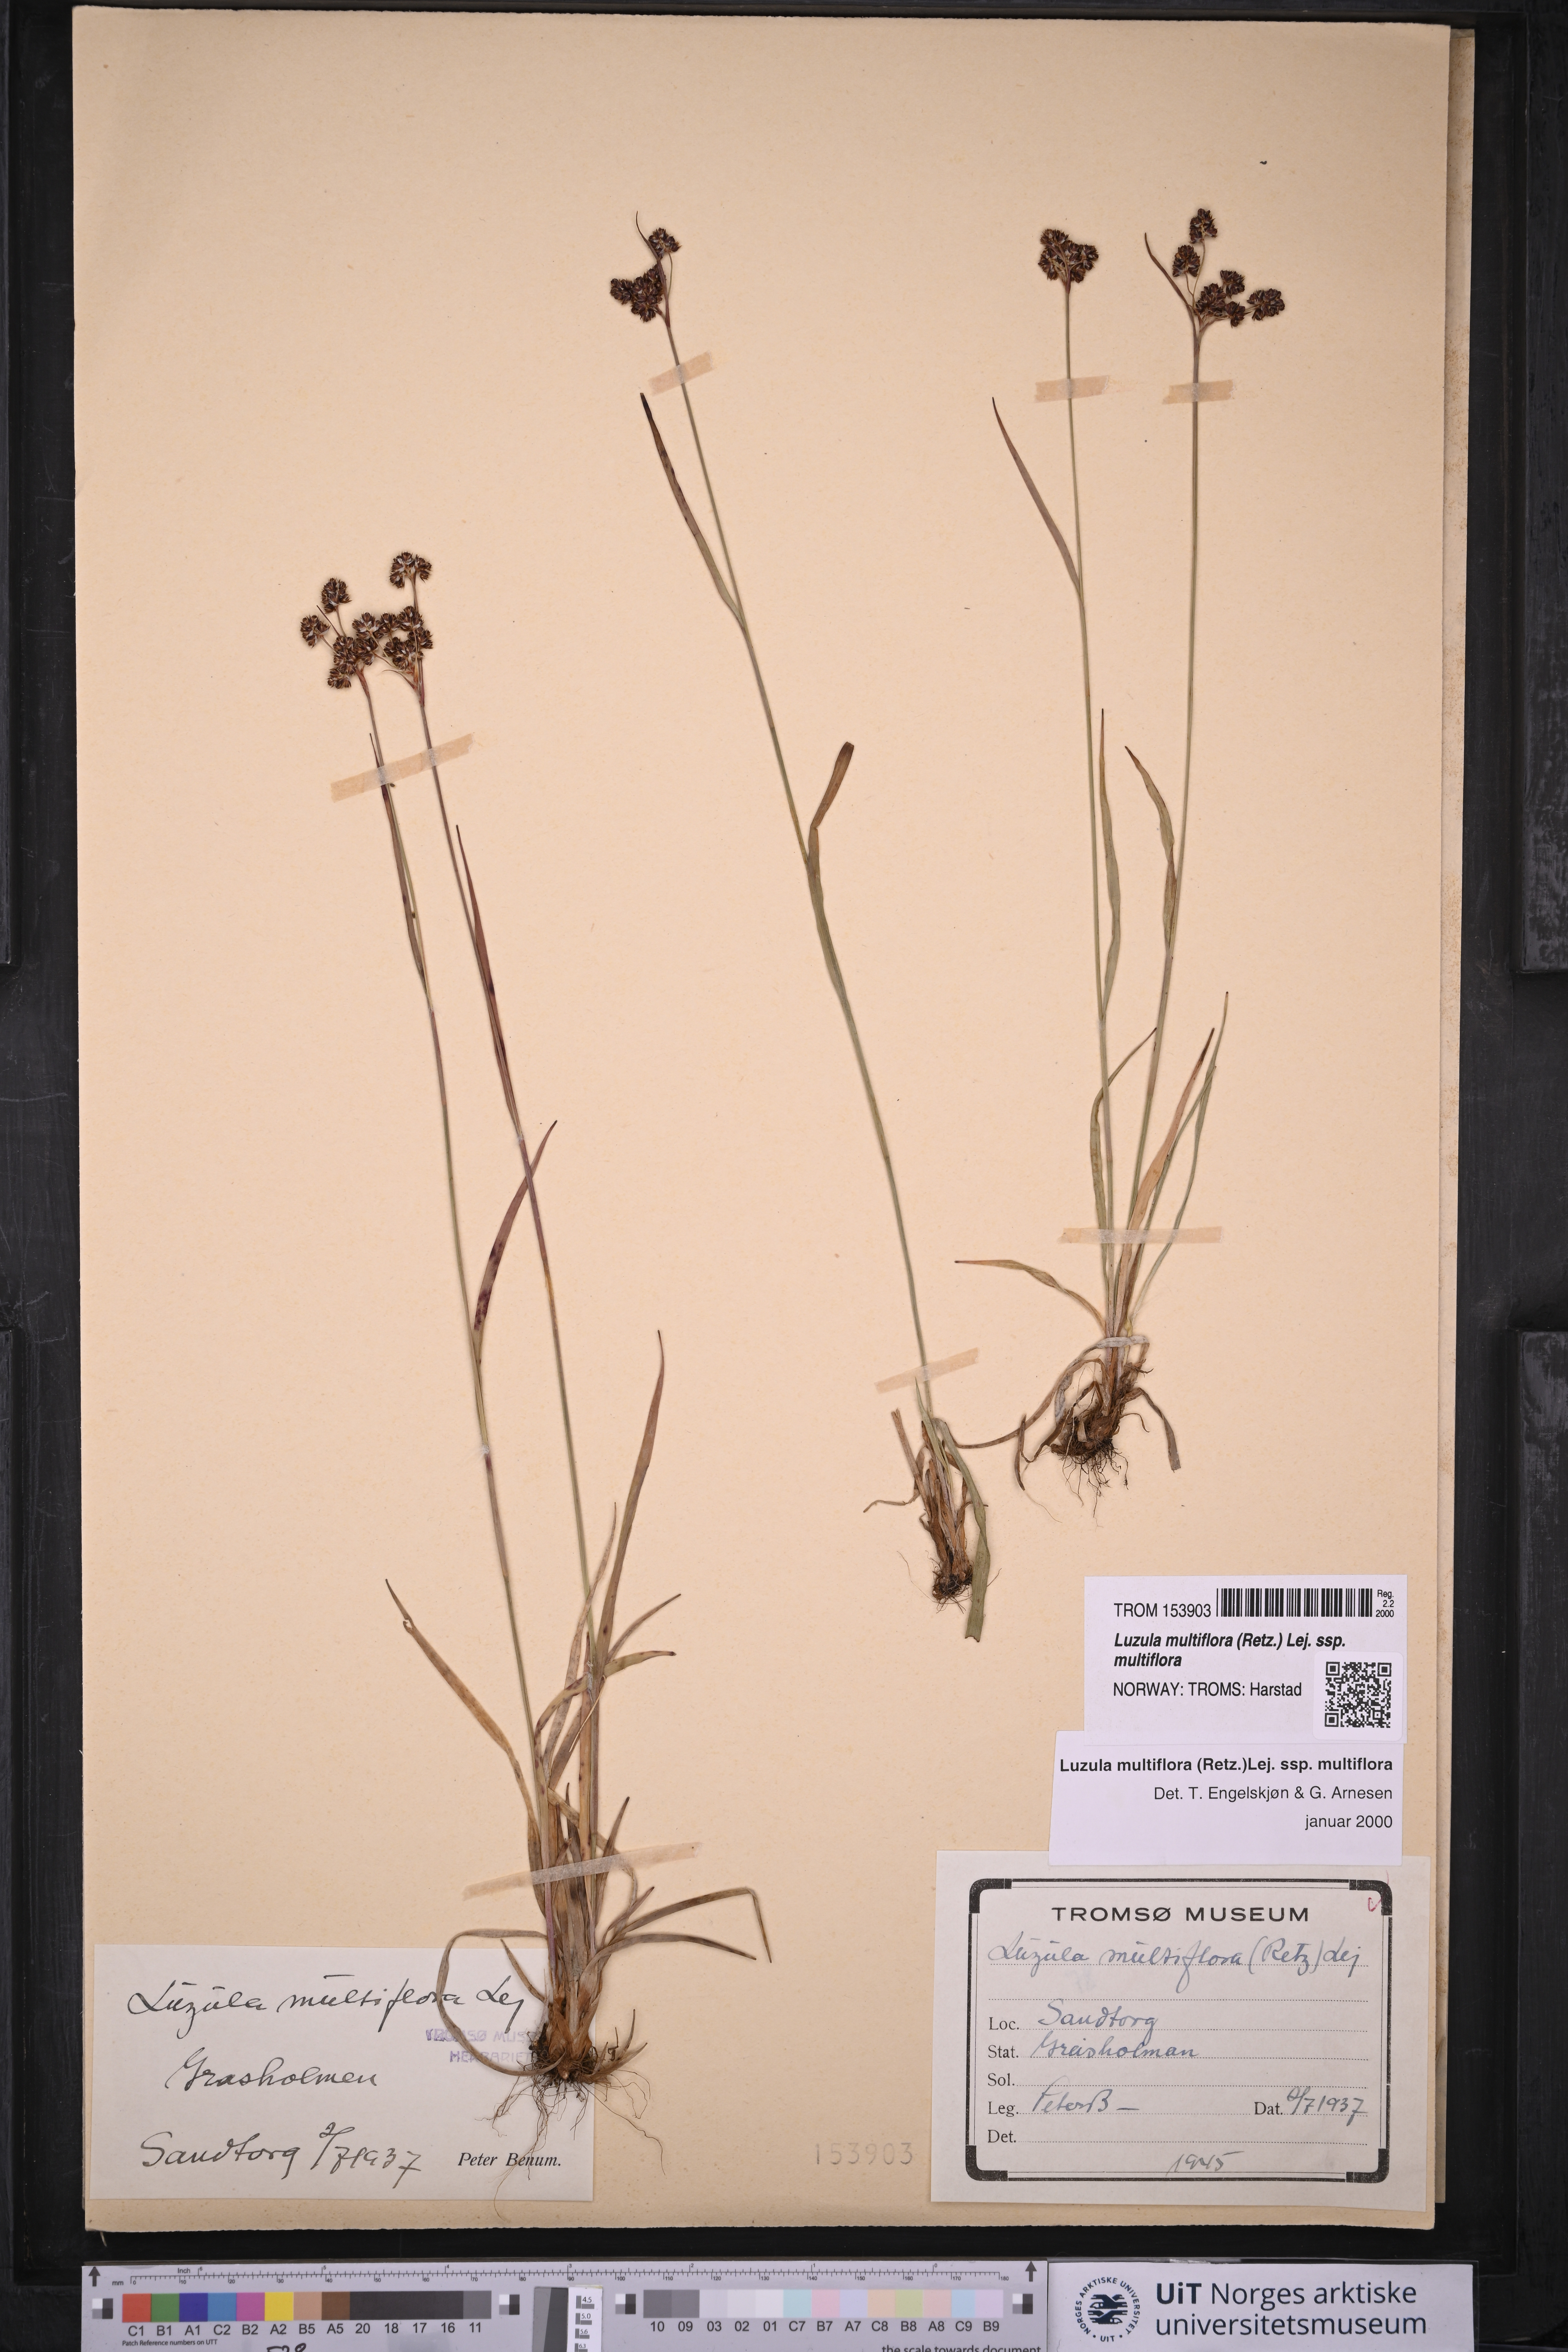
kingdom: Plantae
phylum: Tracheophyta
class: Liliopsida
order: Poales
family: Juncaceae
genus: Luzula
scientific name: Luzula multiflora
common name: Heath wood-rush
